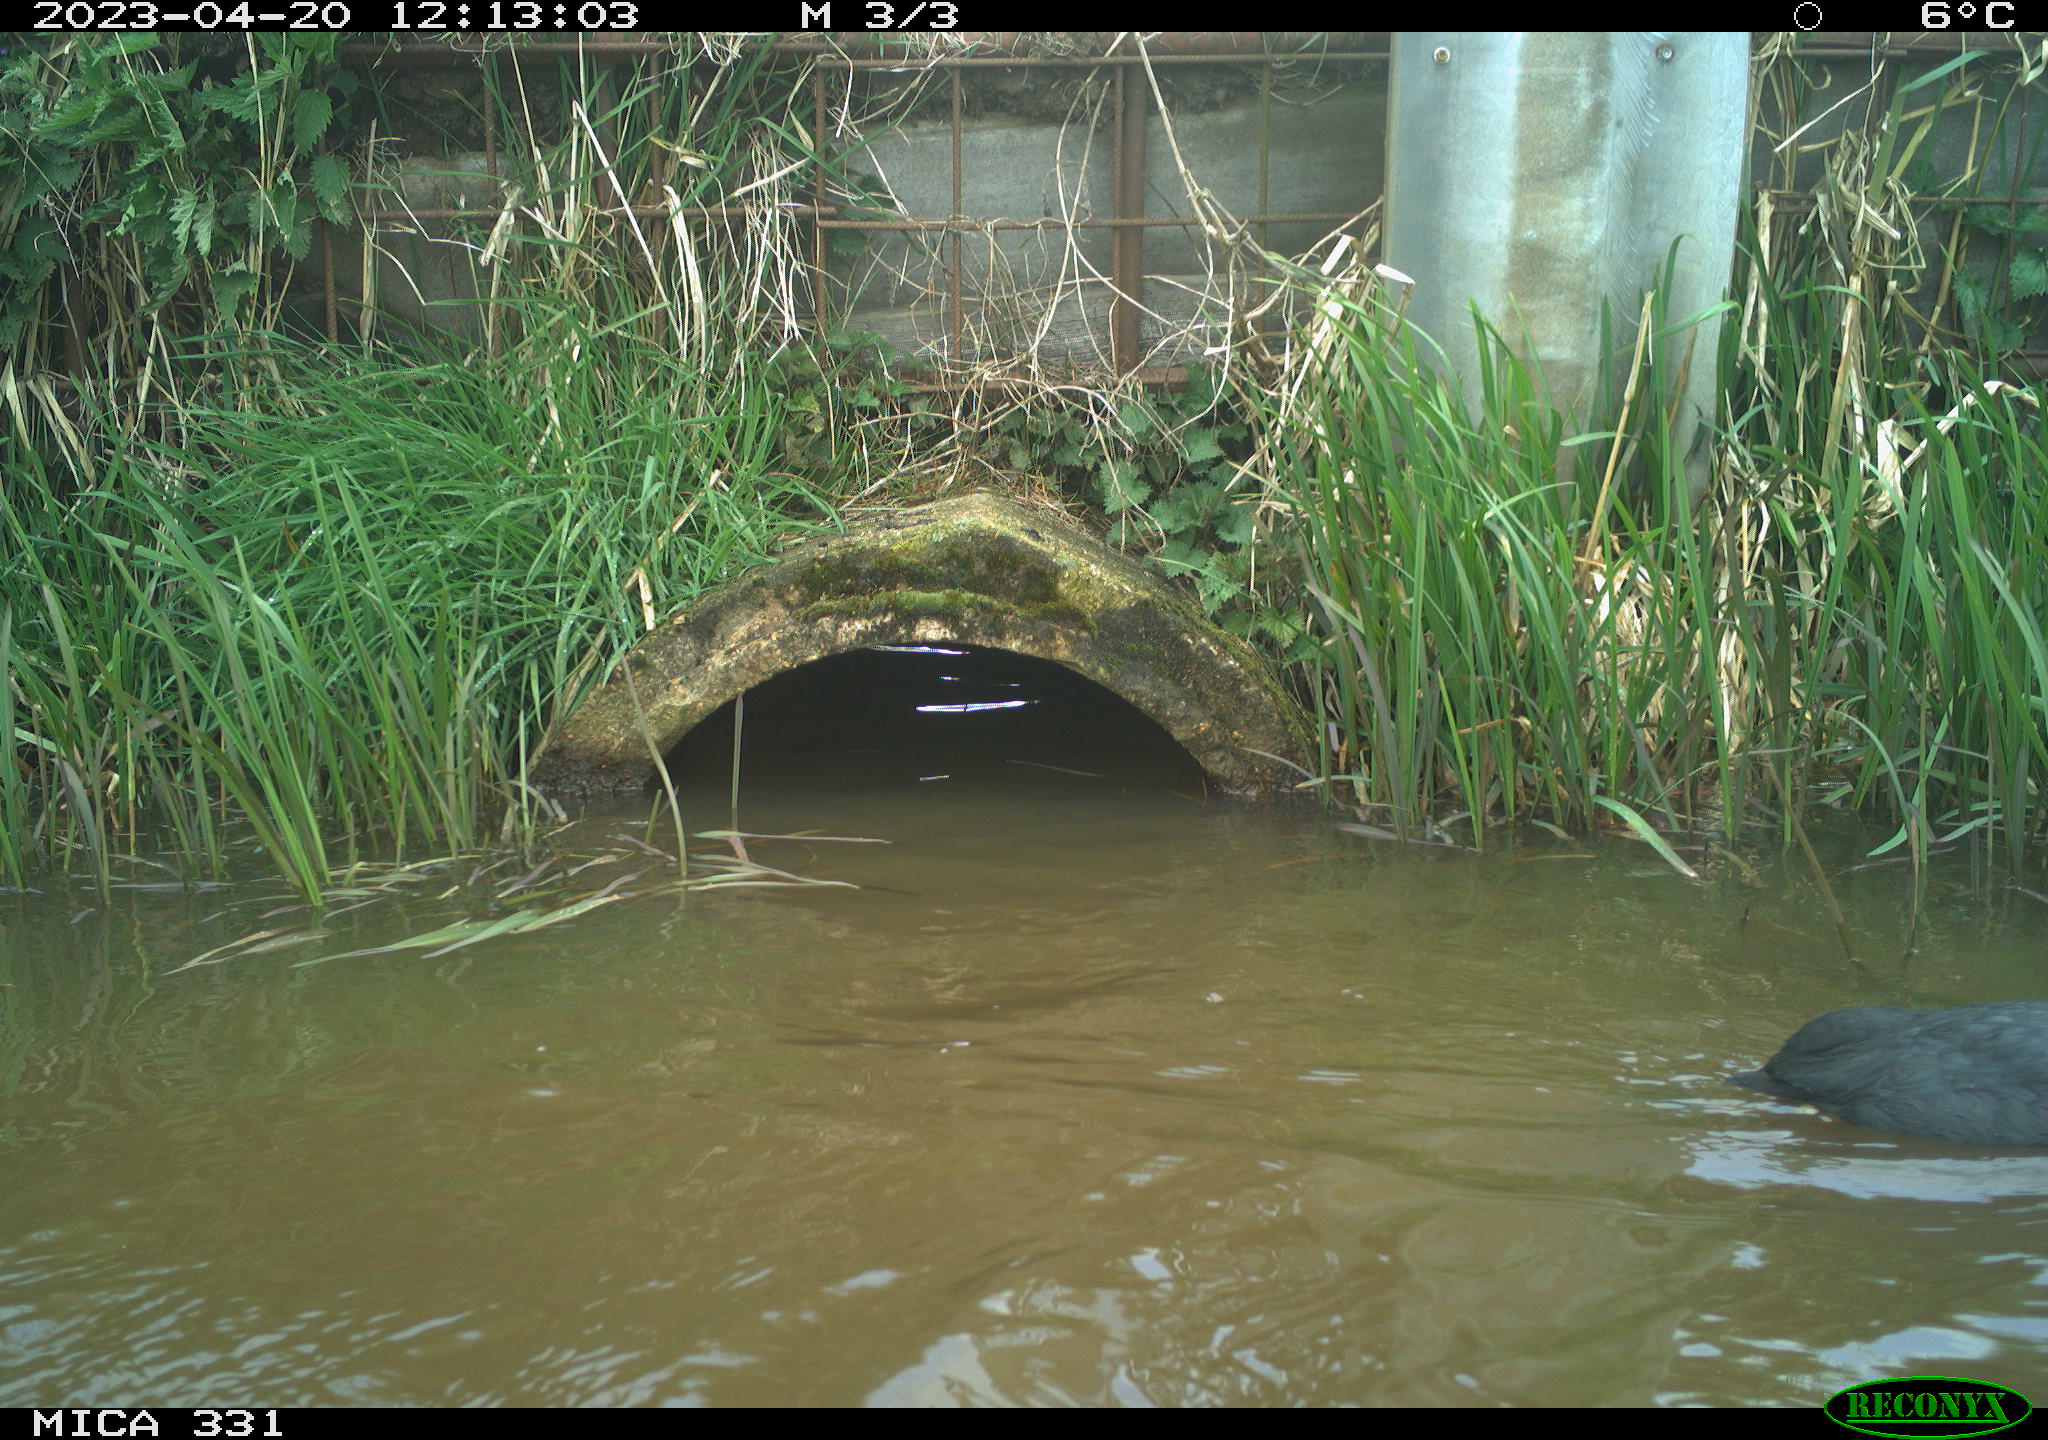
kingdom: Animalia
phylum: Chordata
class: Aves
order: Gruiformes
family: Rallidae
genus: Fulica
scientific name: Fulica atra
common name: Eurasian coot
